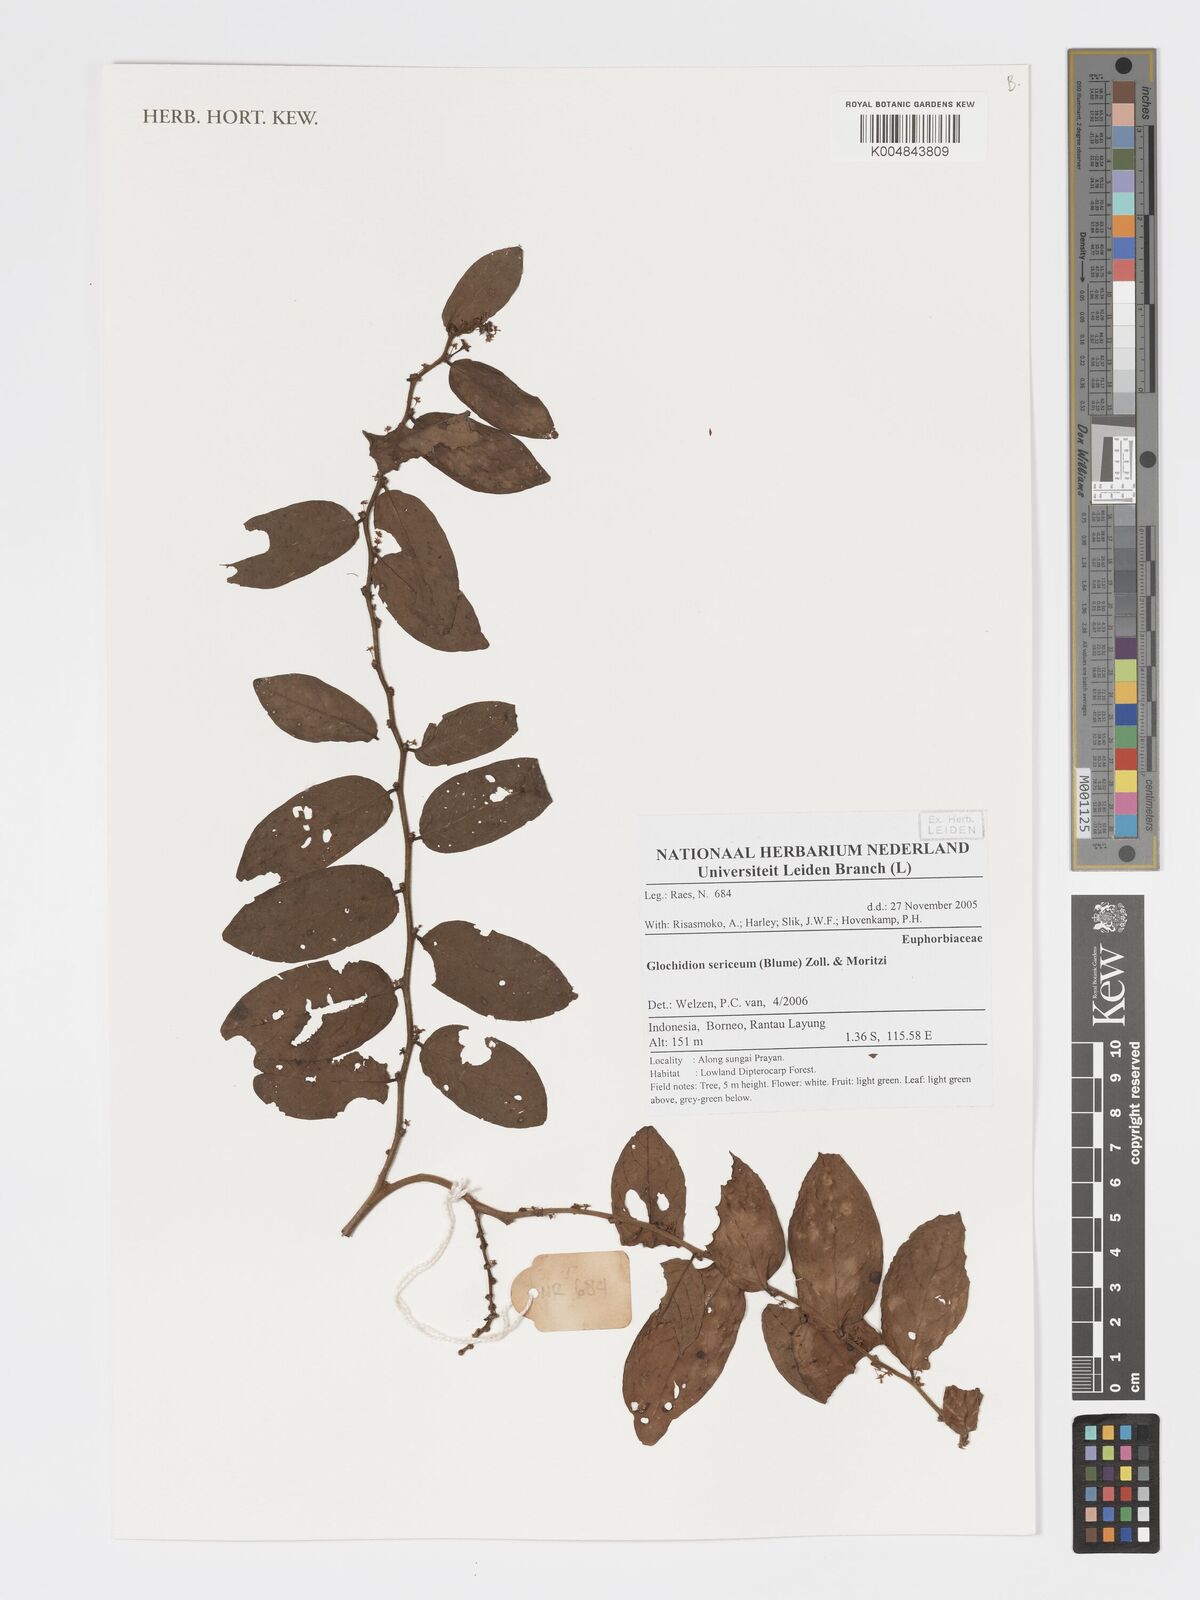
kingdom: Plantae
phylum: Tracheophyta
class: Magnoliopsida
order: Malpighiales
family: Phyllanthaceae
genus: Glochidion
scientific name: Glochidion sericeum
